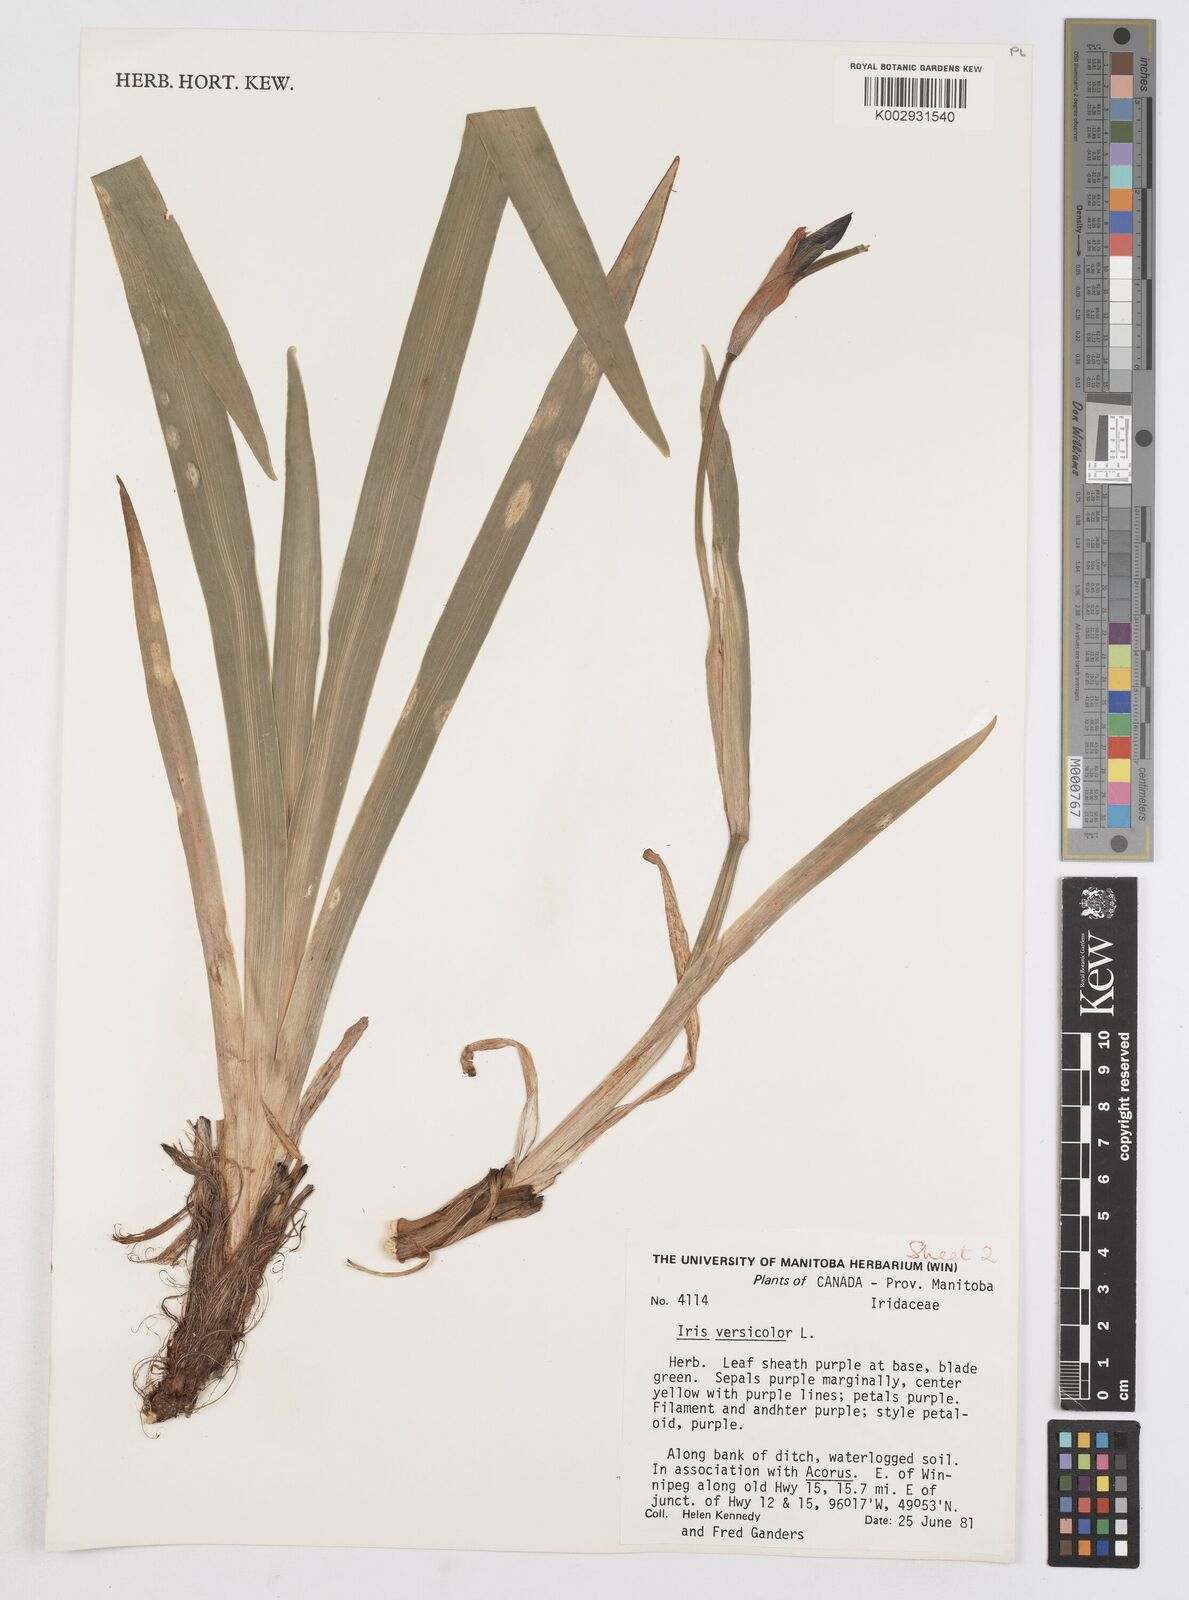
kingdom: Plantae
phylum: Tracheophyta
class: Liliopsida
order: Asparagales
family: Iridaceae
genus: Iris
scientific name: Iris versicolor
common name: Purple iris
